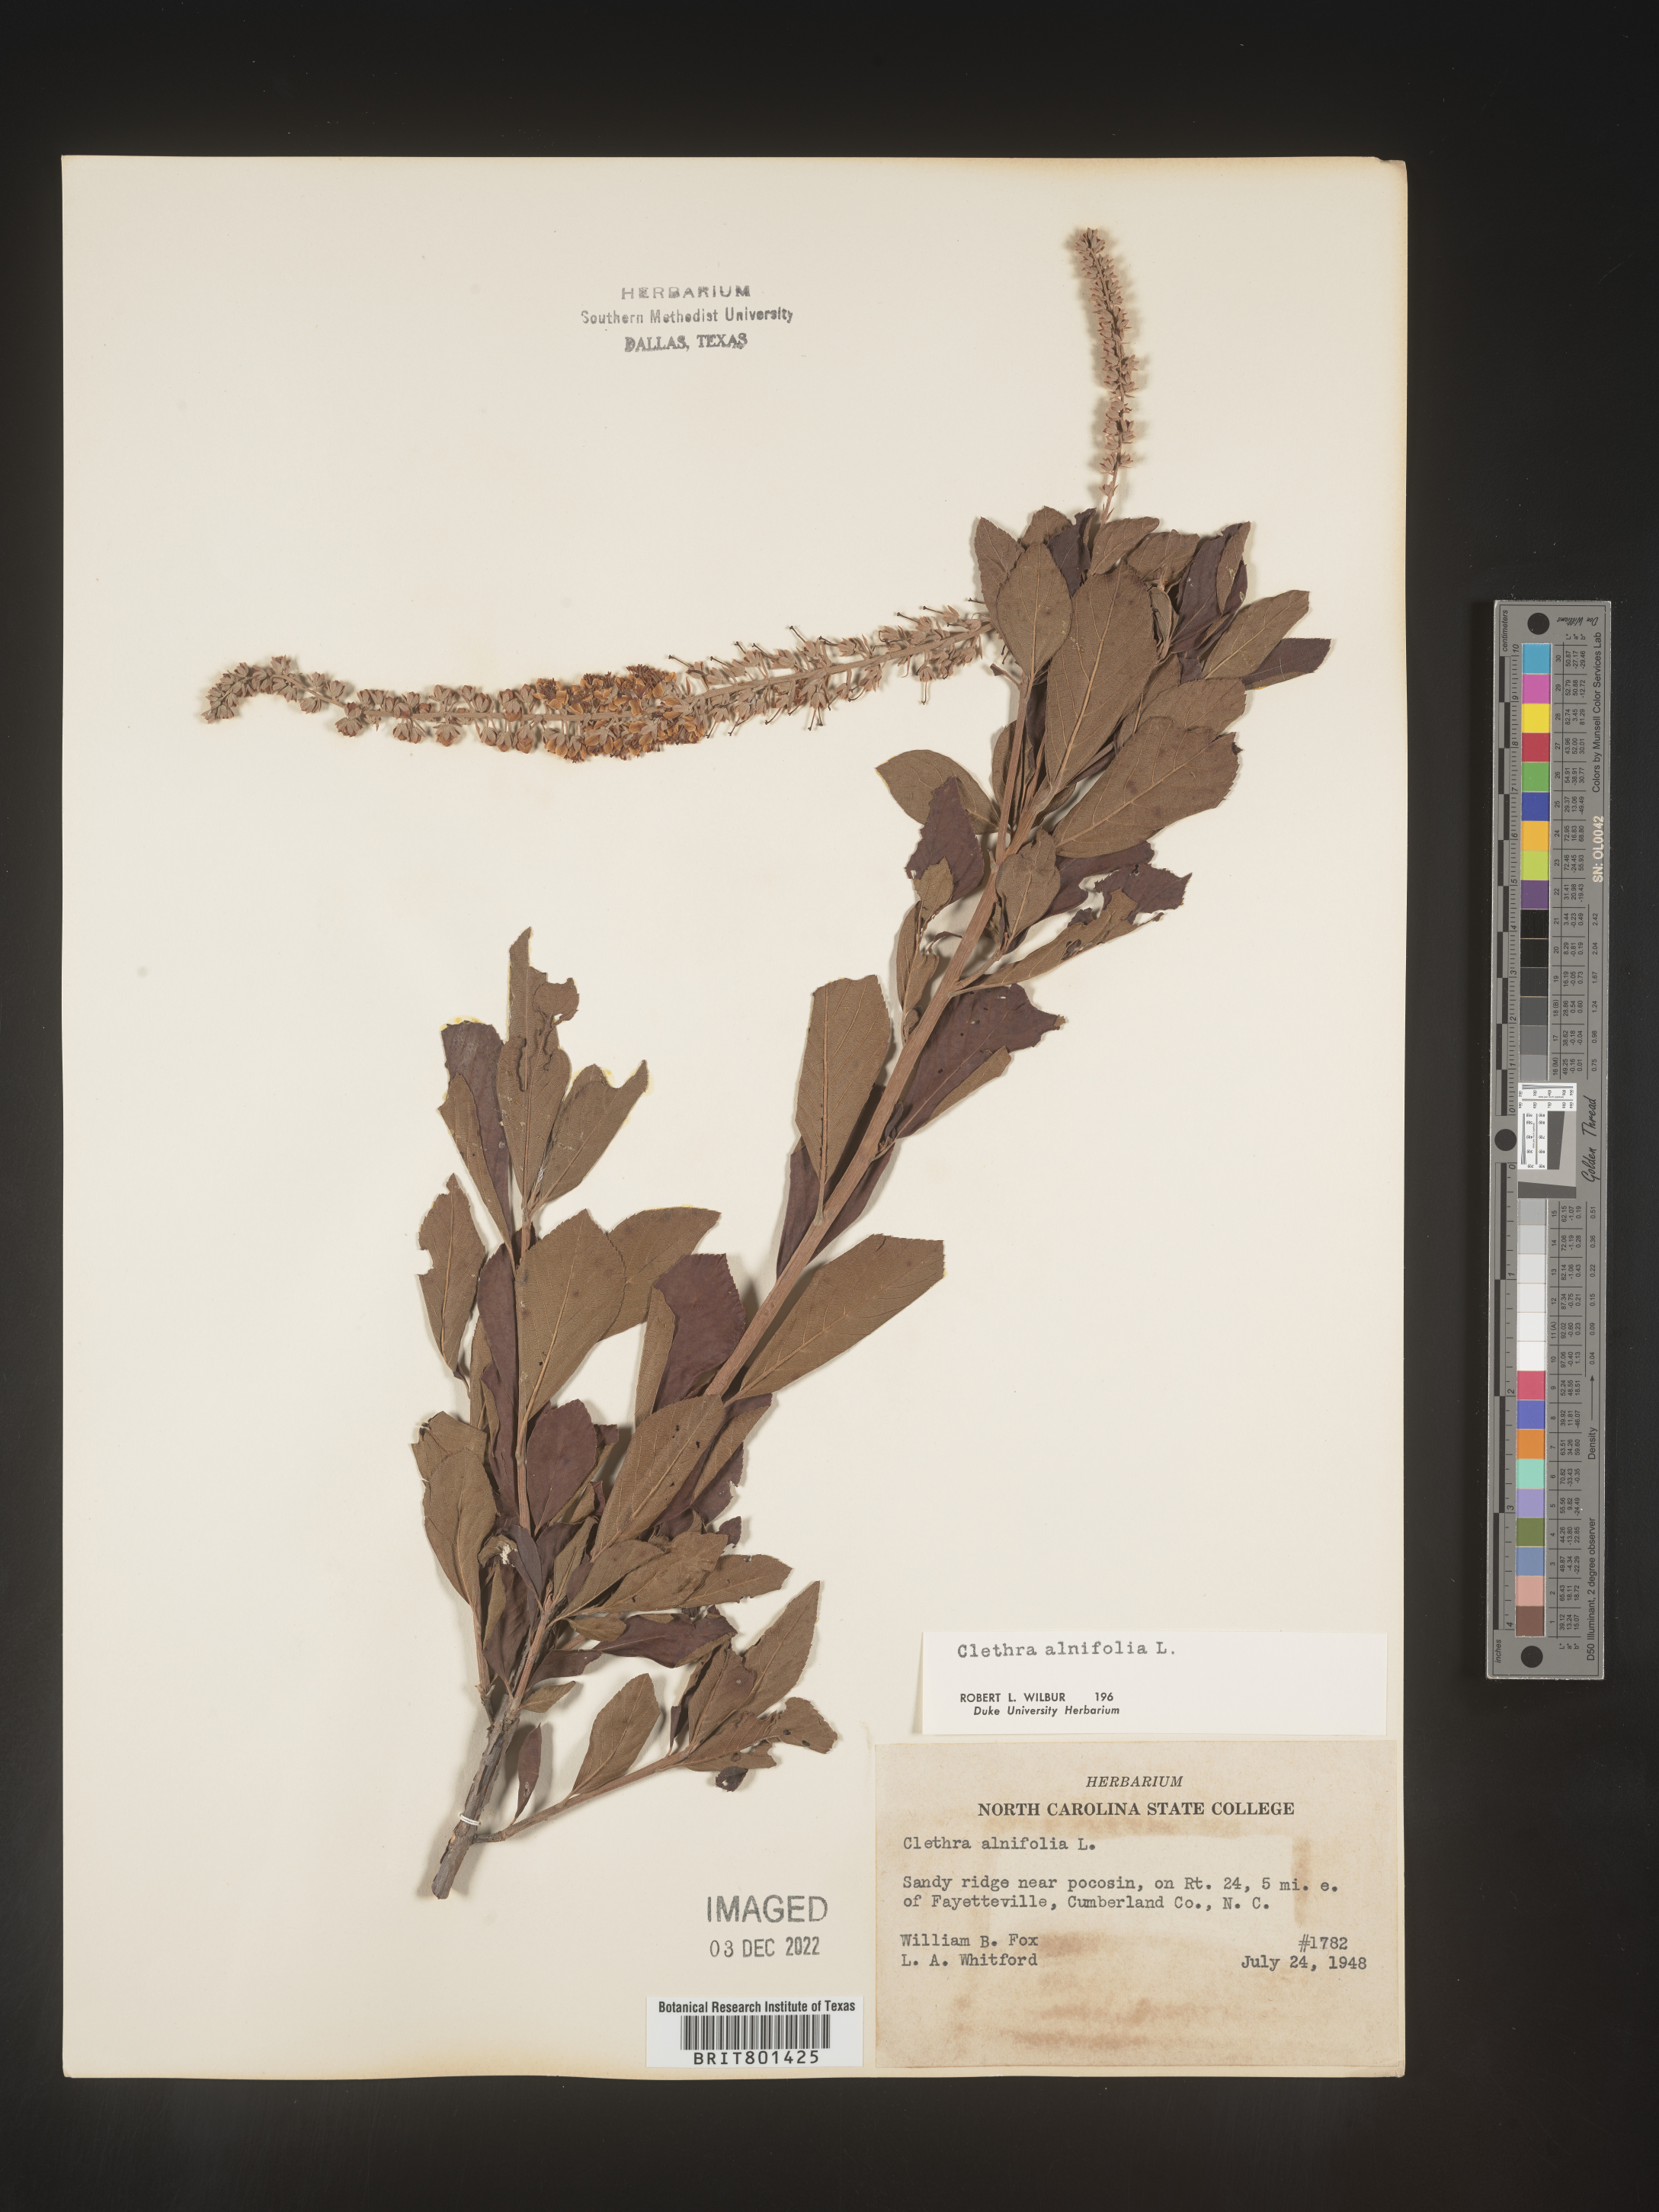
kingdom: Plantae
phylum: Tracheophyta
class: Magnoliopsida
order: Ericales
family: Clethraceae
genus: Clethra
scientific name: Clethra alnifolia
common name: Sweet pepperbush
